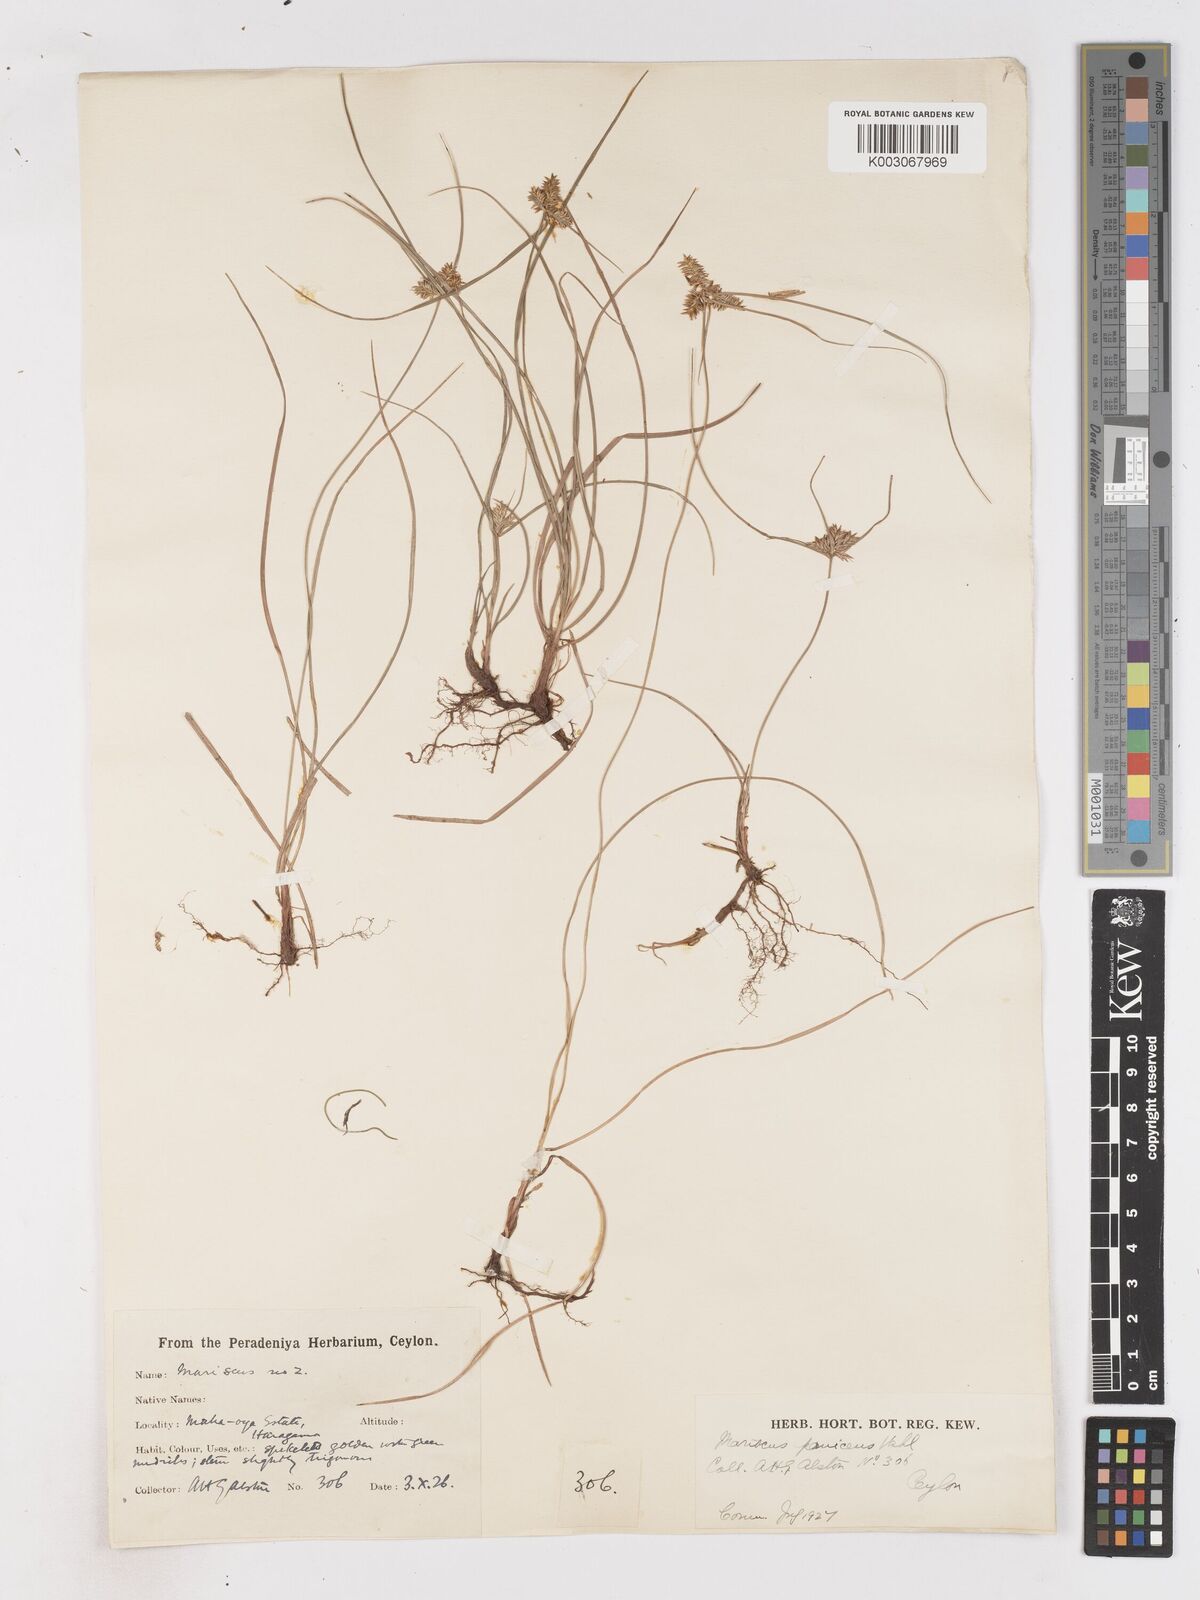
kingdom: Plantae
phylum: Tracheophyta
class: Liliopsida
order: Poales
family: Cyperaceae
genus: Cyperus
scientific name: Cyperus paniceus
